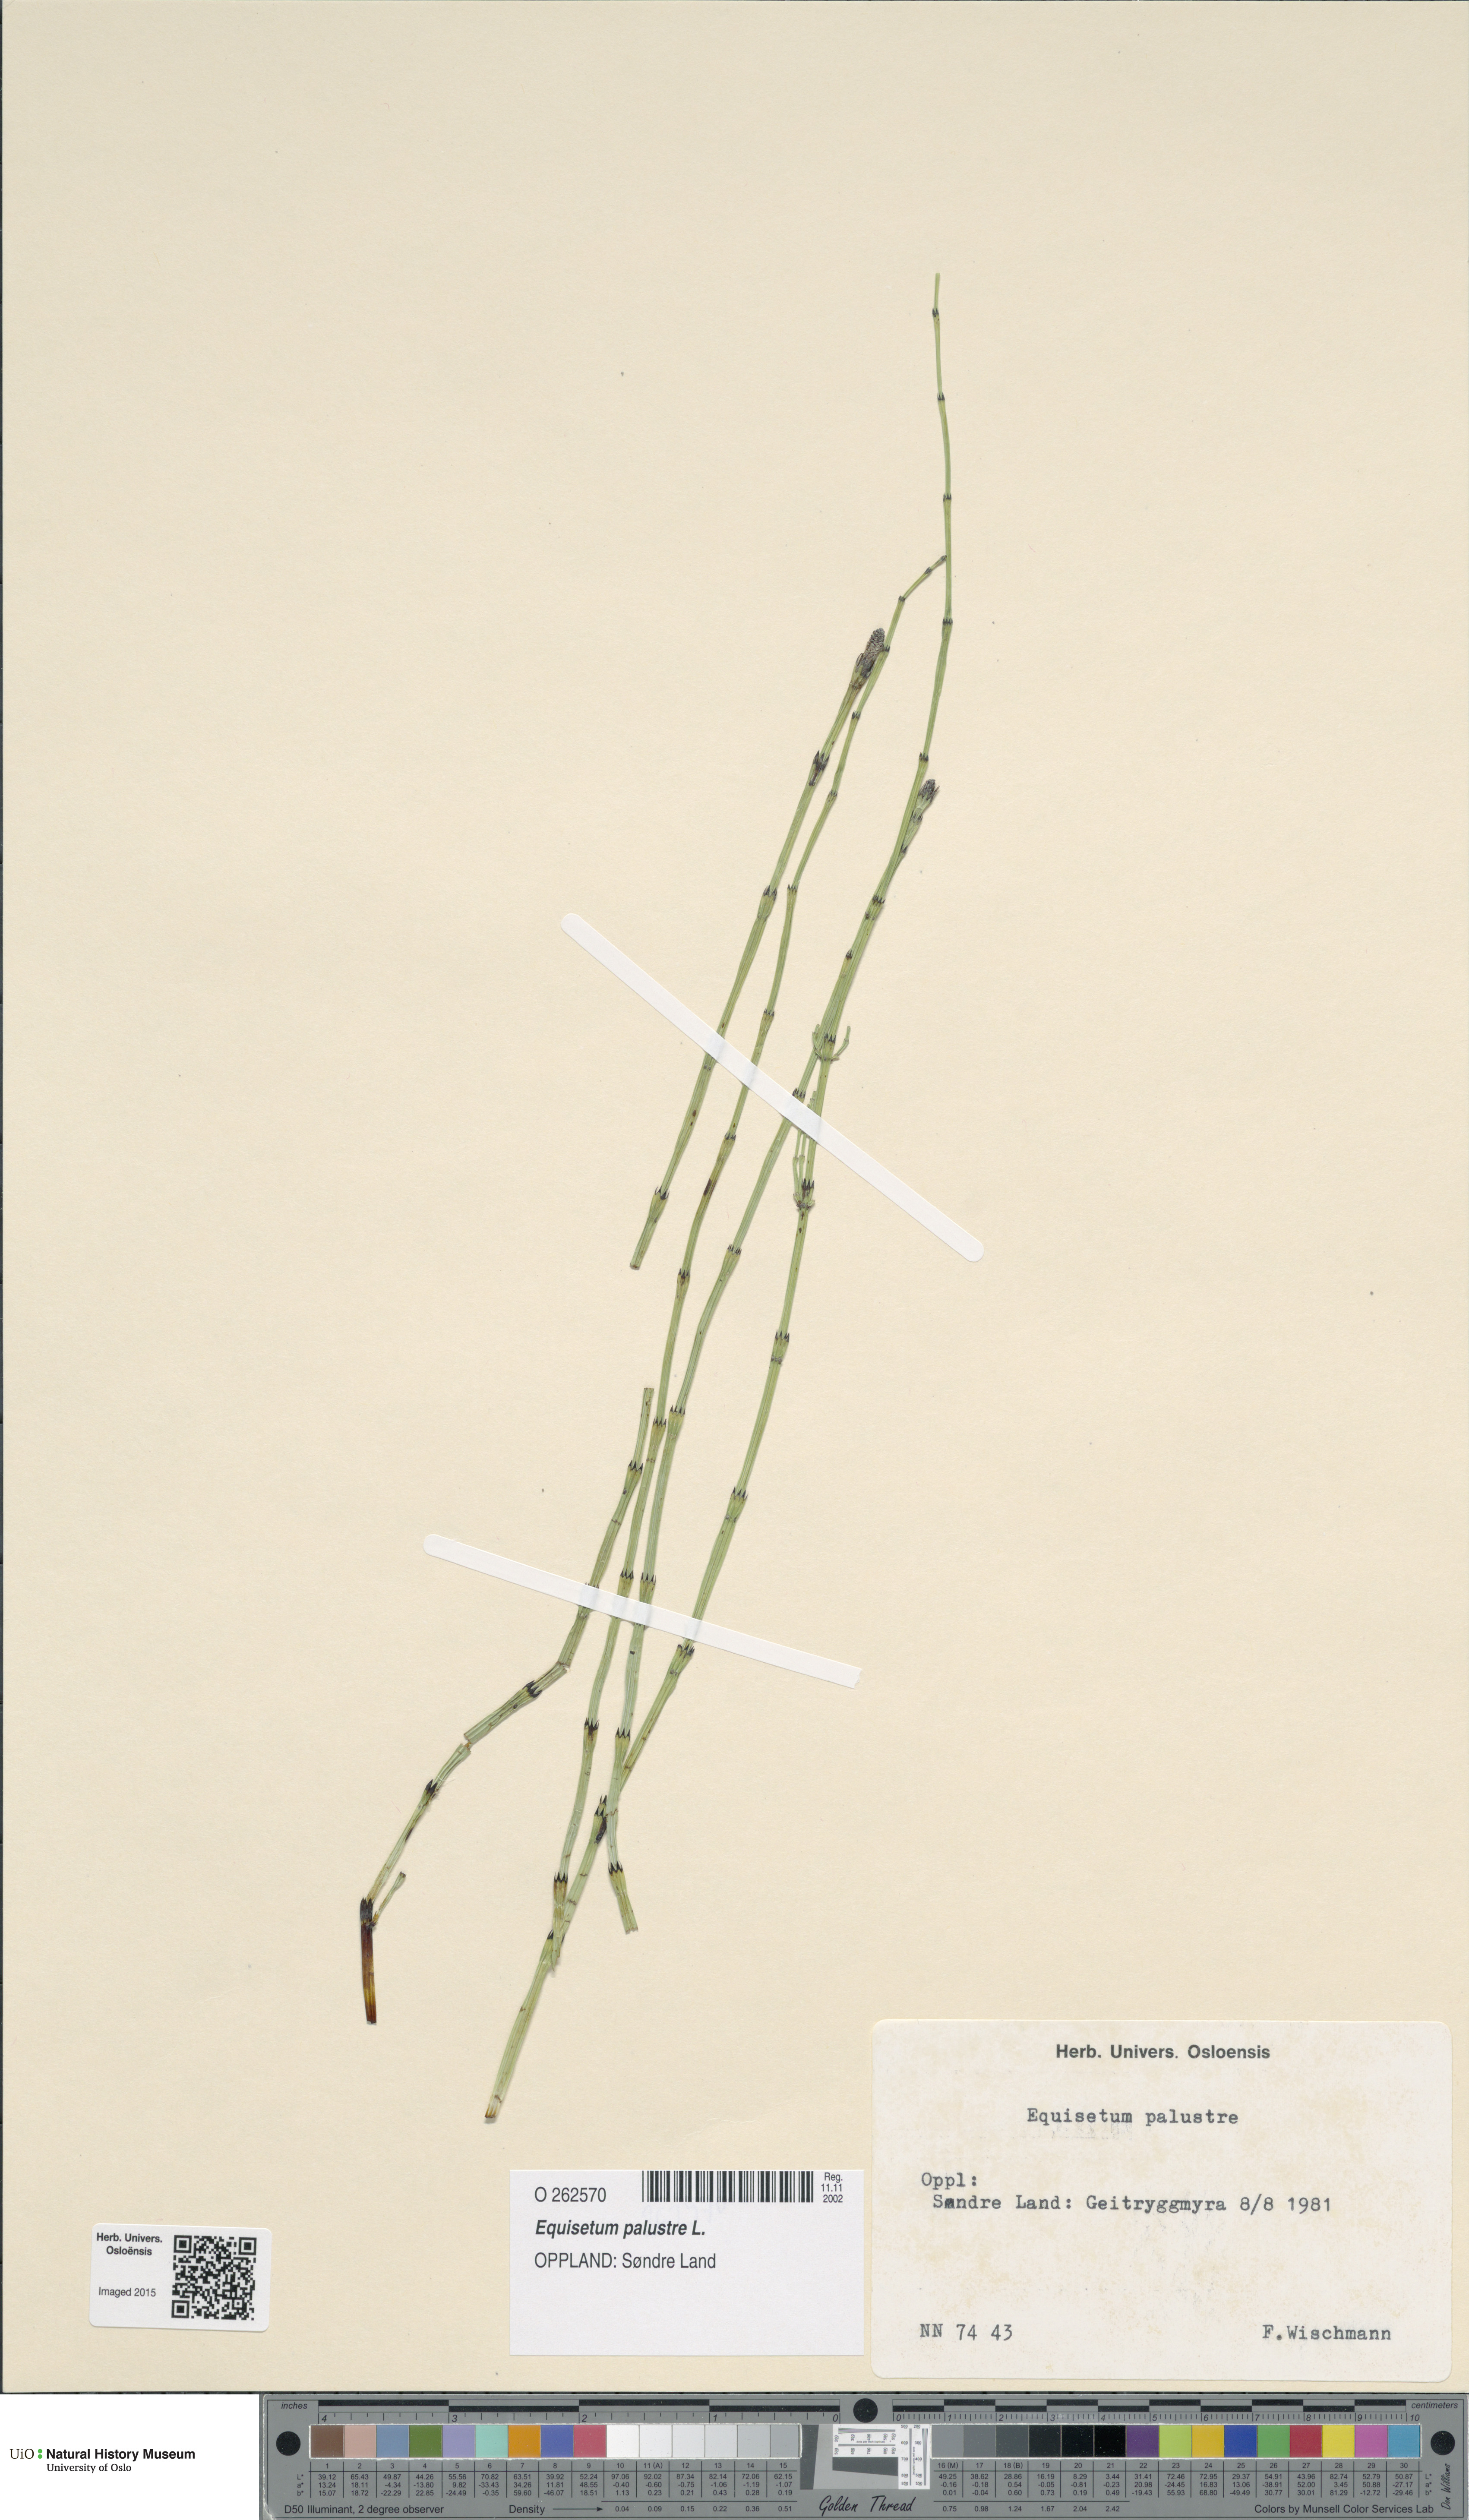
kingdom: Plantae
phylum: Tracheophyta
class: Polypodiopsida
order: Equisetales
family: Equisetaceae
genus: Equisetum
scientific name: Equisetum palustre
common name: Marsh horsetail
